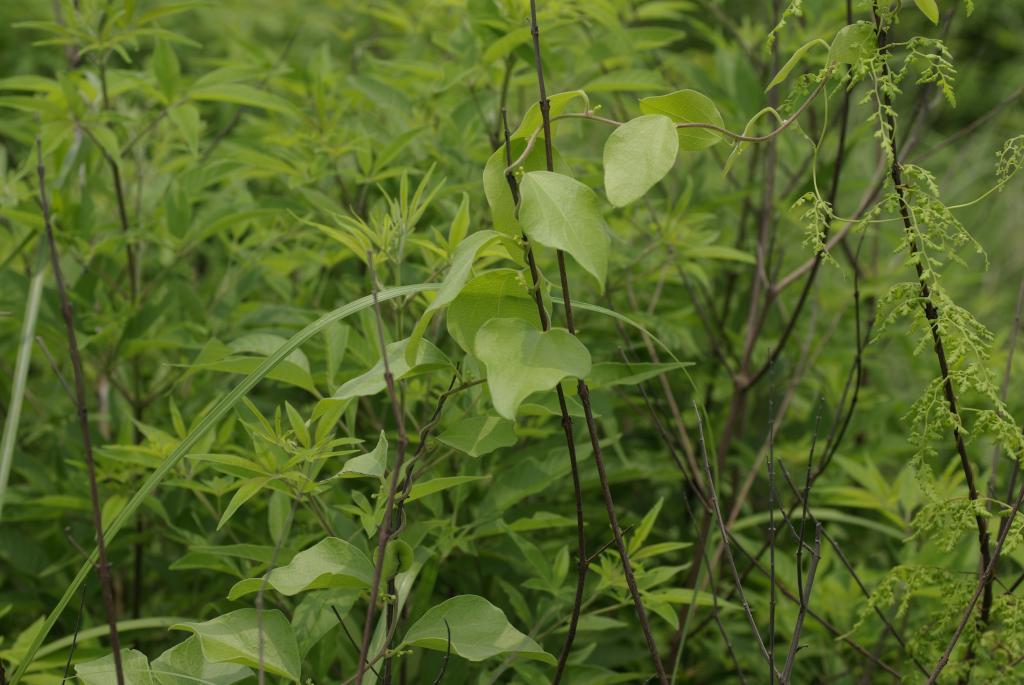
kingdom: Plantae
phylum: Tracheophyta
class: Magnoliopsida
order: Ranunculales
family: Menispermaceae
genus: Cocculus
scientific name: Cocculus orbiculatus
